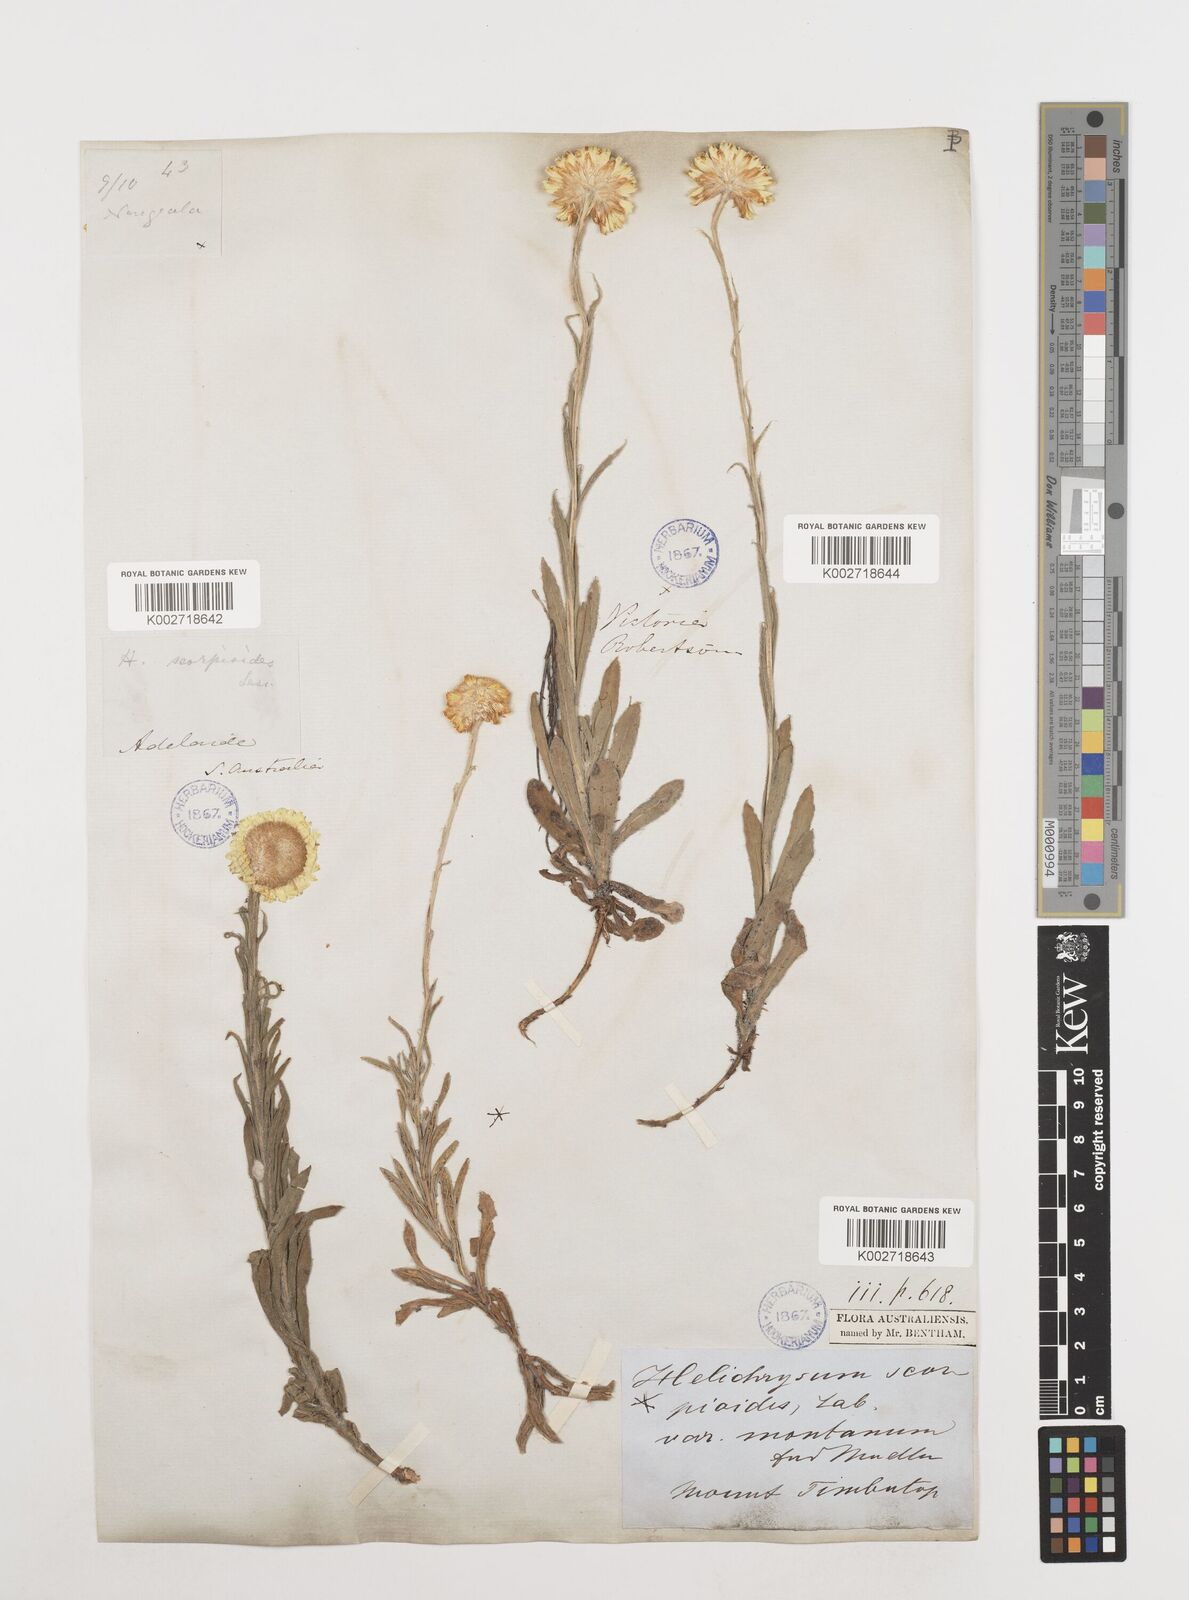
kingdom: Plantae
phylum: Tracheophyta
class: Magnoliopsida
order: Asterales
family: Asteraceae
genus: Coronidium
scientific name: Coronidium scorpioides
